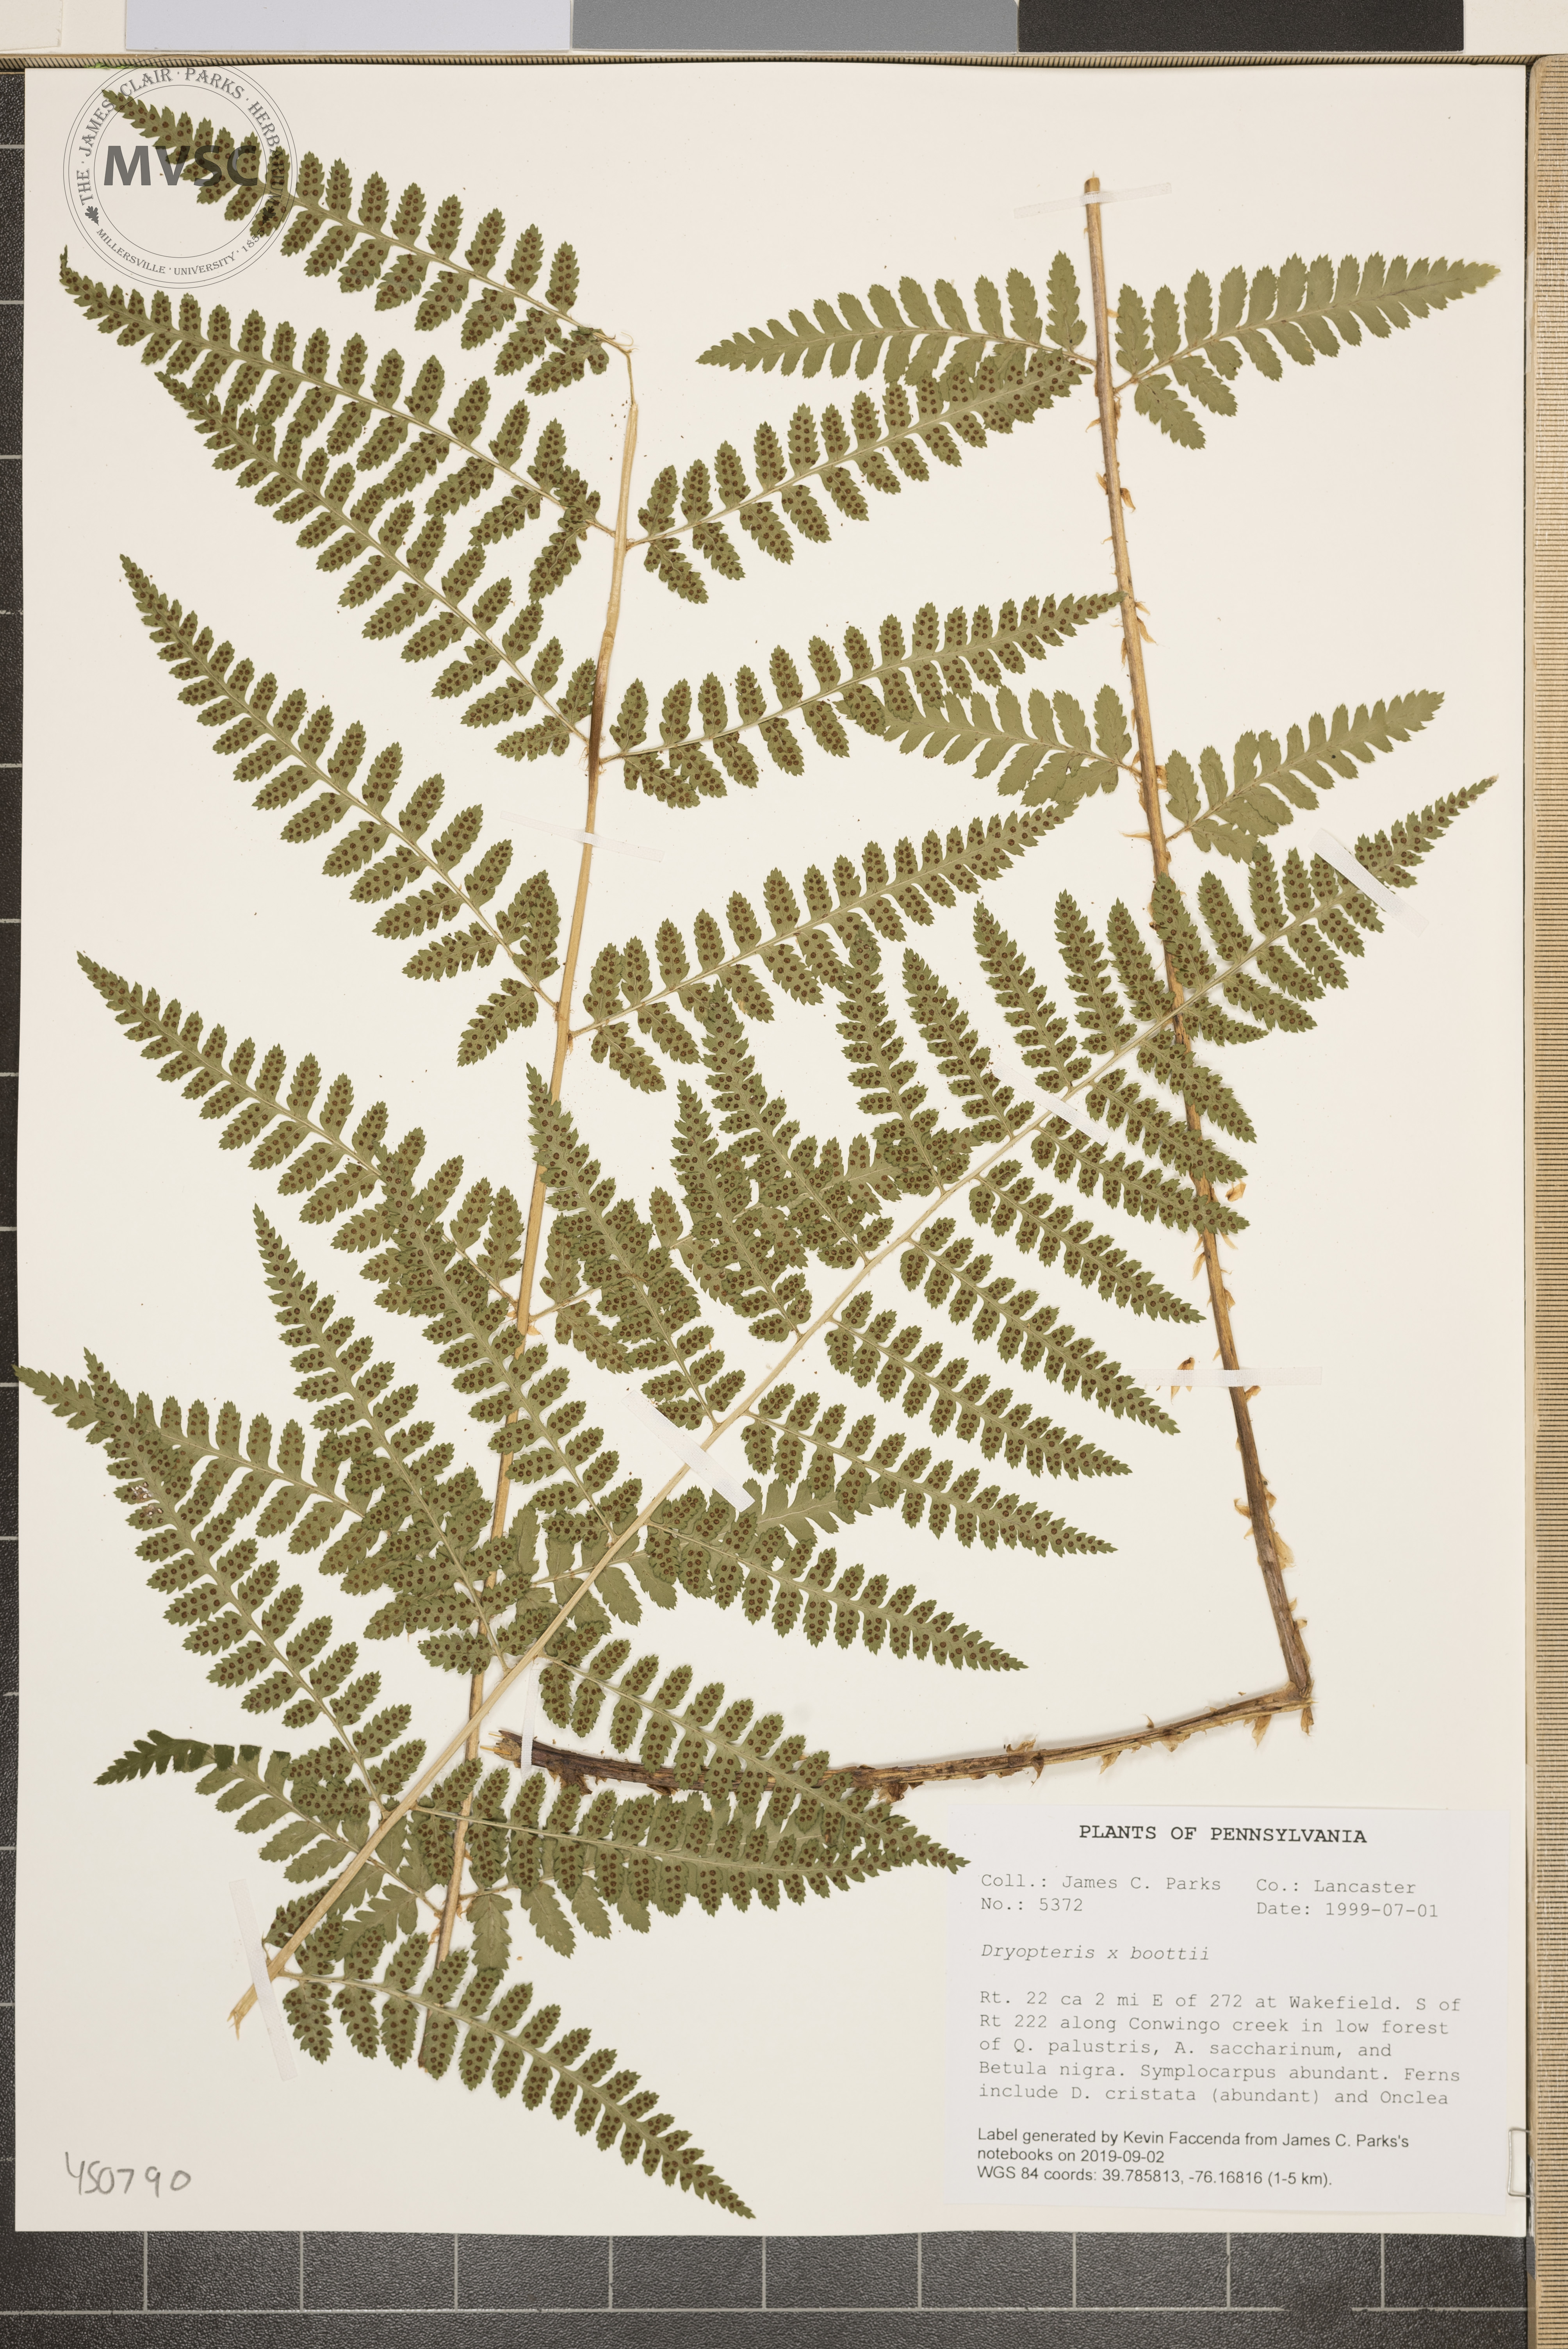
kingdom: Plantae
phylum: Tracheophyta
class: Polypodiopsida
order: Polypodiales
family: Dryopteridaceae
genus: Dryopteris
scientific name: Dryopteris boottii
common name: Boott's fern
